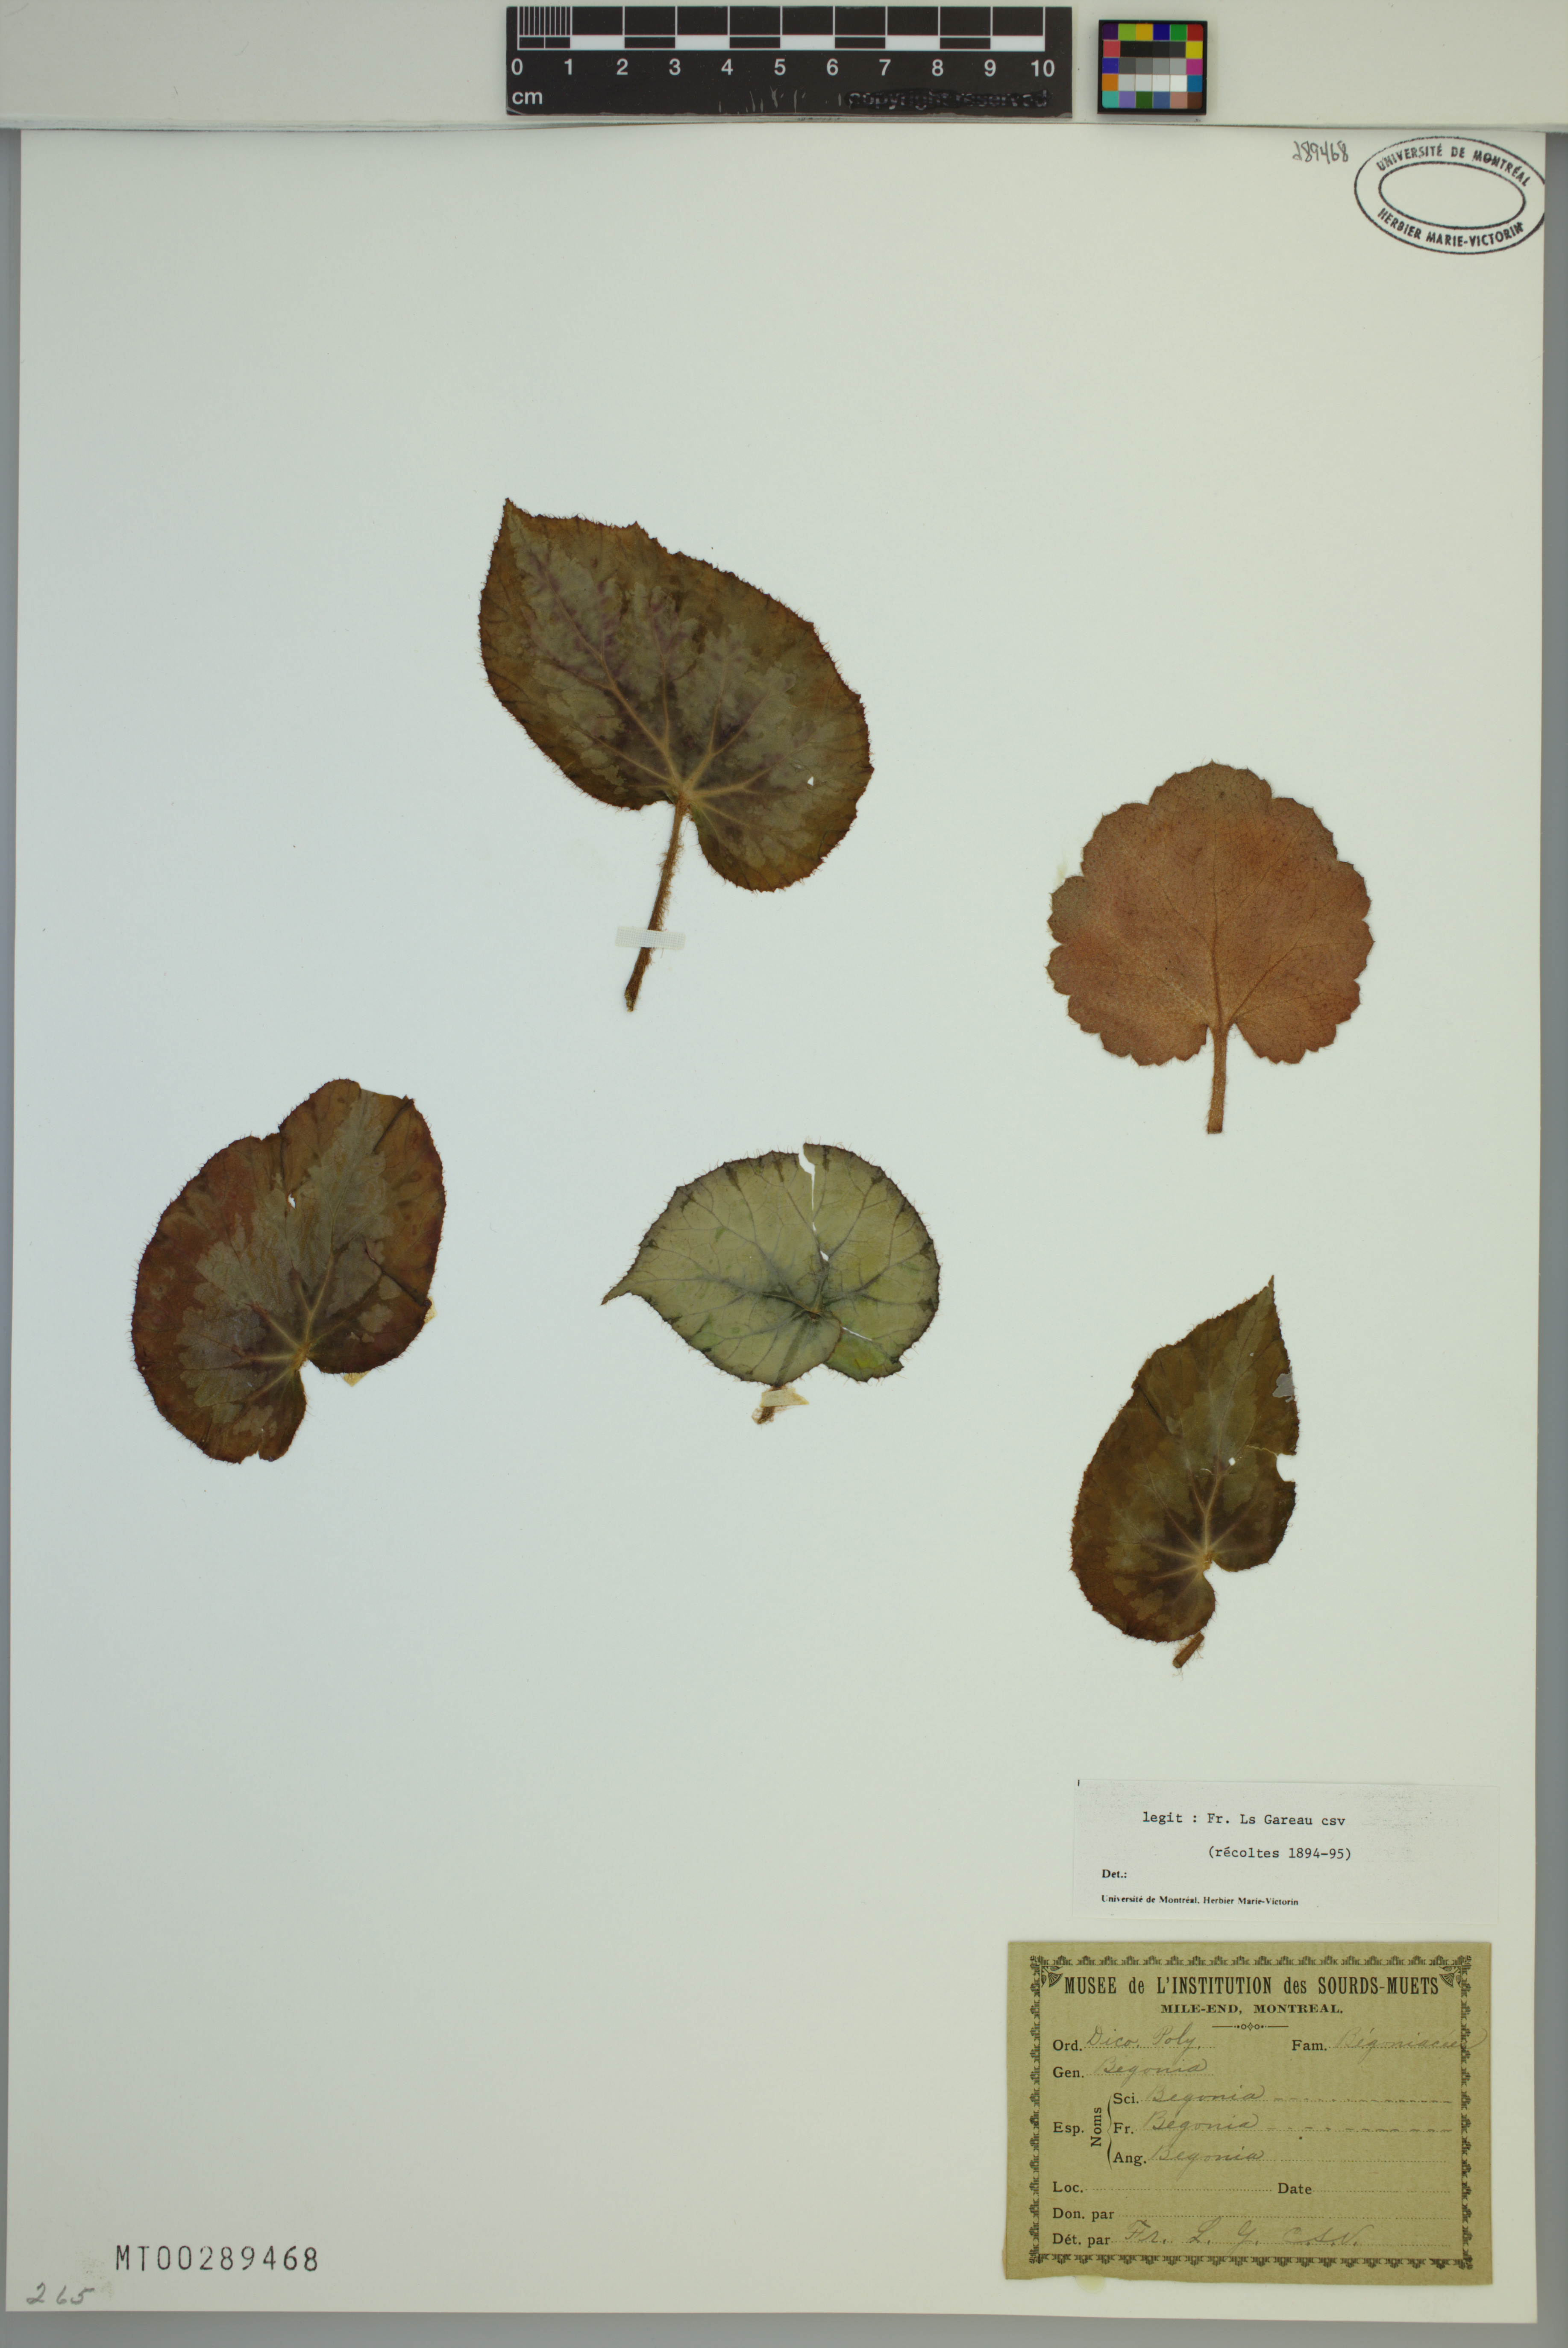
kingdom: Plantae
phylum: Tracheophyta
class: Magnoliopsida
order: Cucurbitales
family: Begoniaceae
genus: Begonia
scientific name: Begonia
